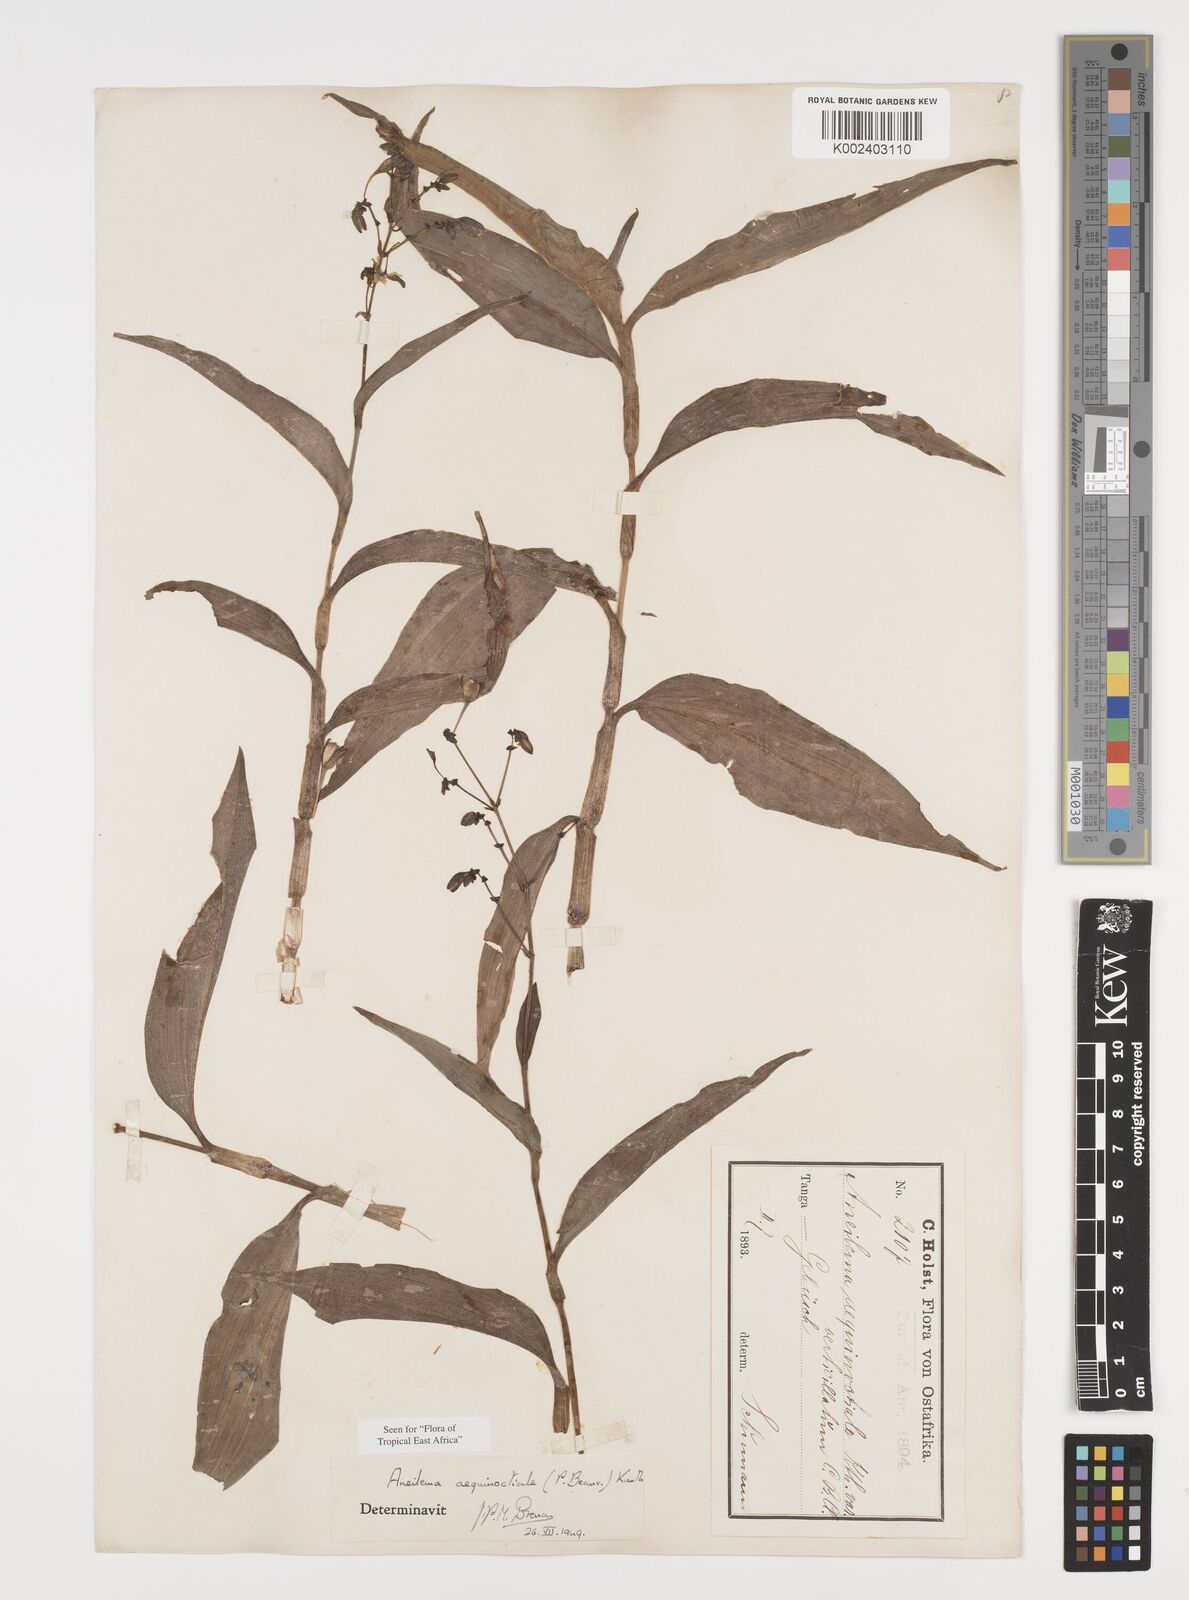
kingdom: Plantae
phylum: Tracheophyta
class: Liliopsida
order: Commelinales
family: Commelinaceae
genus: Aneilema
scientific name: Aneilema aequinoctiale
